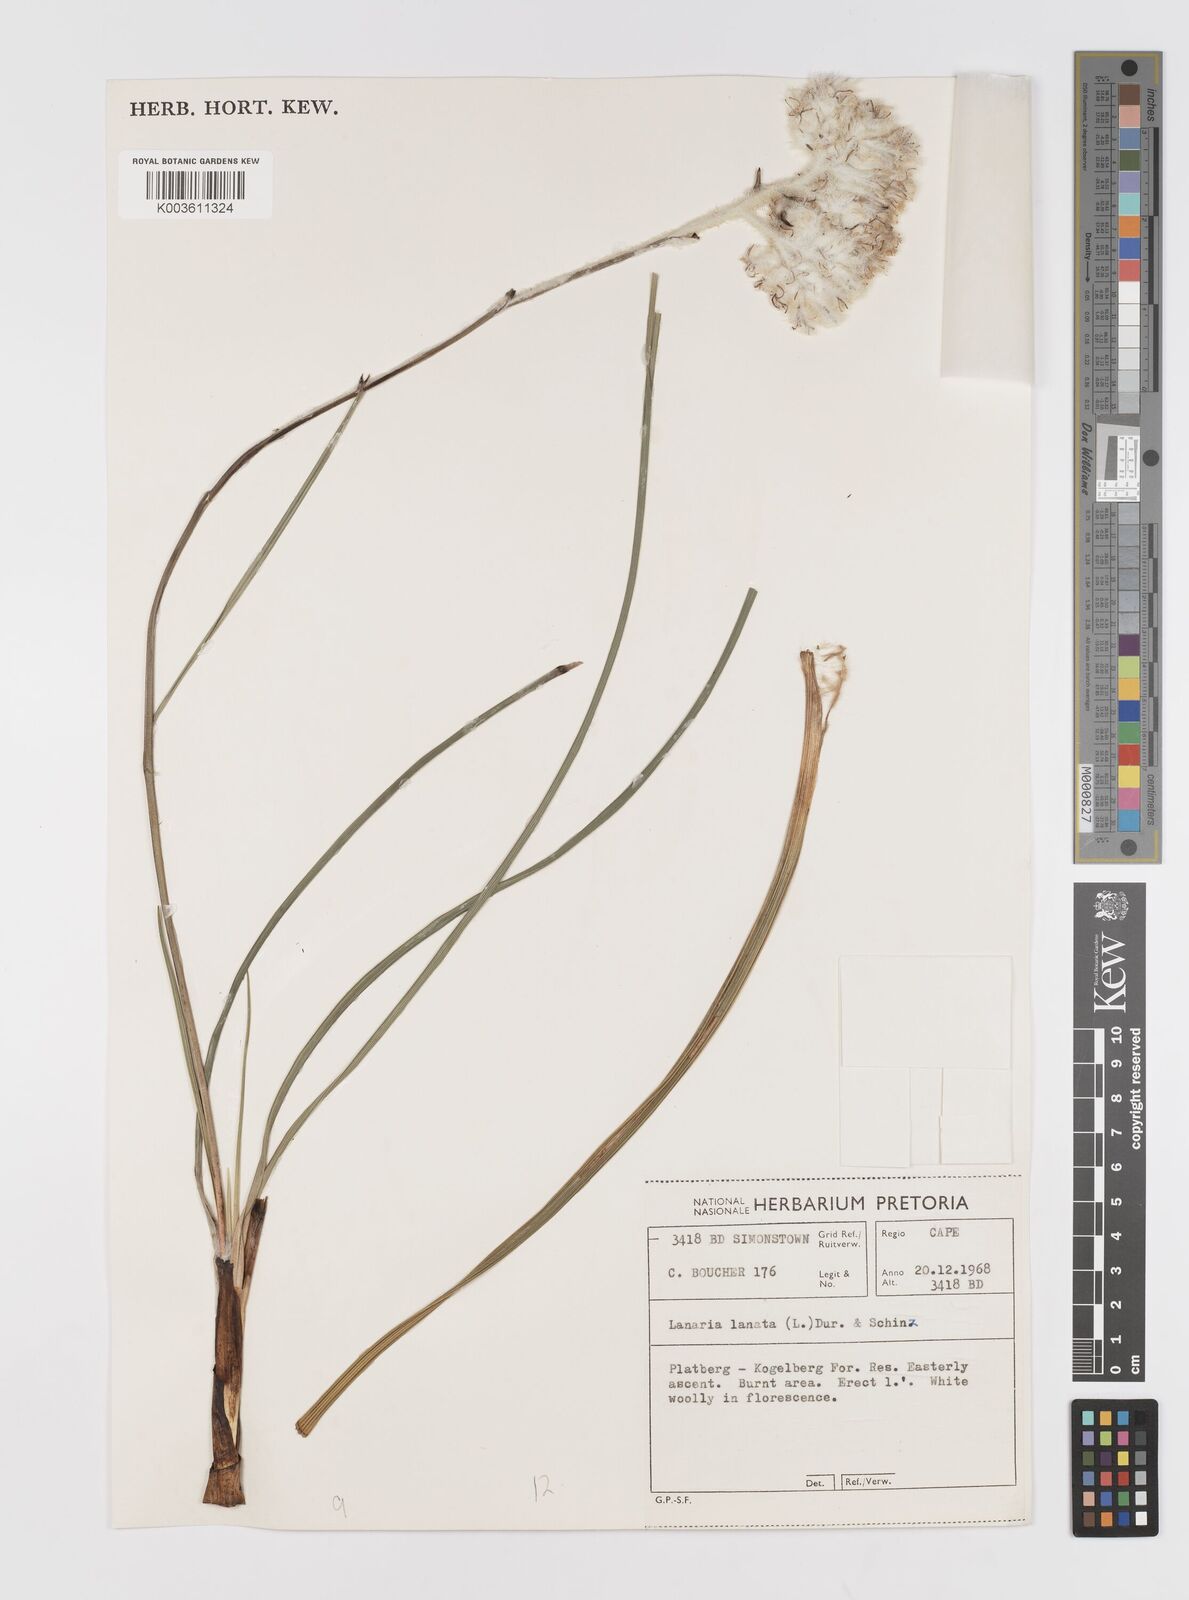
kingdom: Plantae
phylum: Tracheophyta
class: Liliopsida
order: Asparagales
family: Lanariaceae
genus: Lanaria
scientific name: Lanaria lanata
